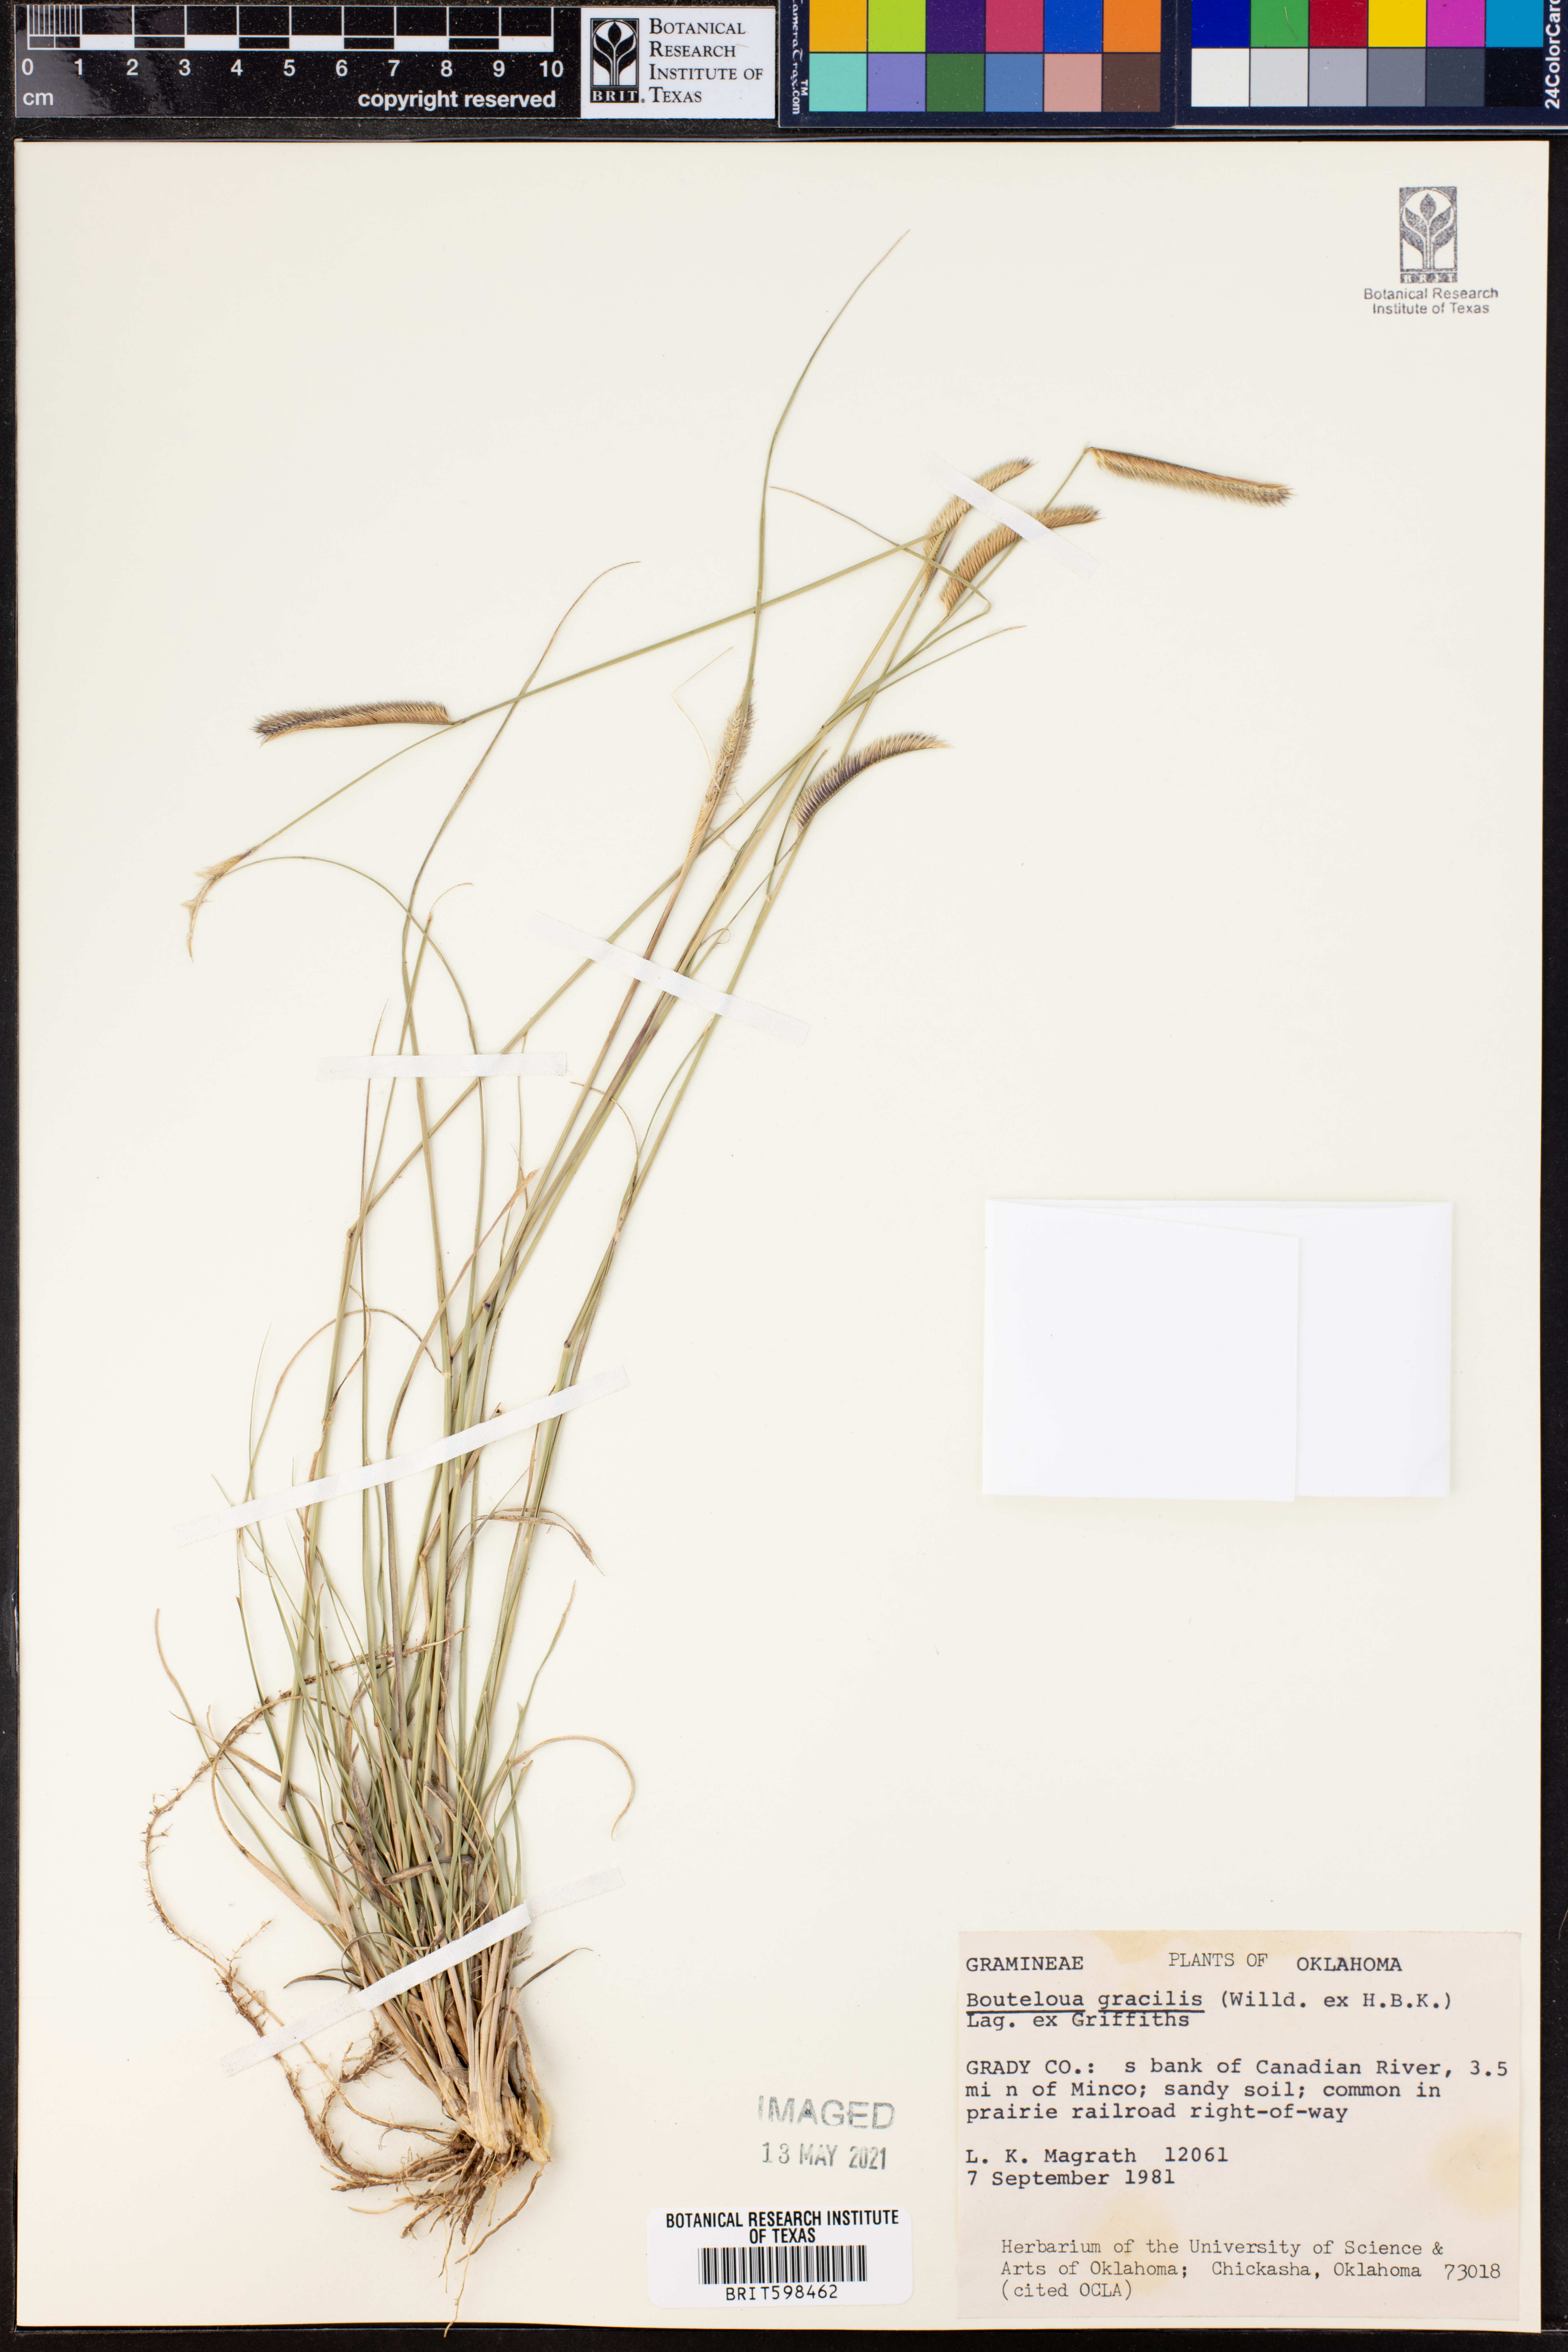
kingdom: Plantae
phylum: Tracheophyta
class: Liliopsida
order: Poales
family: Poaceae
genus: Bouteloua
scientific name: Bouteloua gracilis
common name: Blue grama
